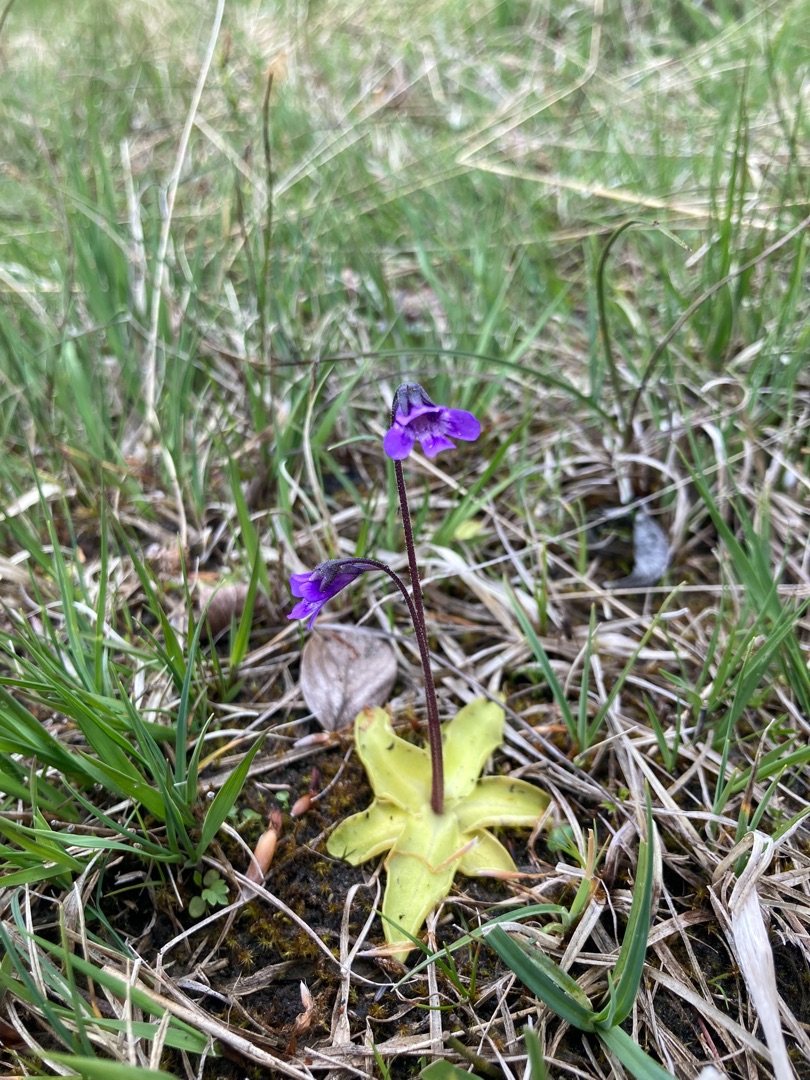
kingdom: Plantae
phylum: Tracheophyta
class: Magnoliopsida
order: Lamiales
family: Lentibulariaceae
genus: Pinguicula
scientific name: Pinguicula vulgaris
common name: Vibefedt
